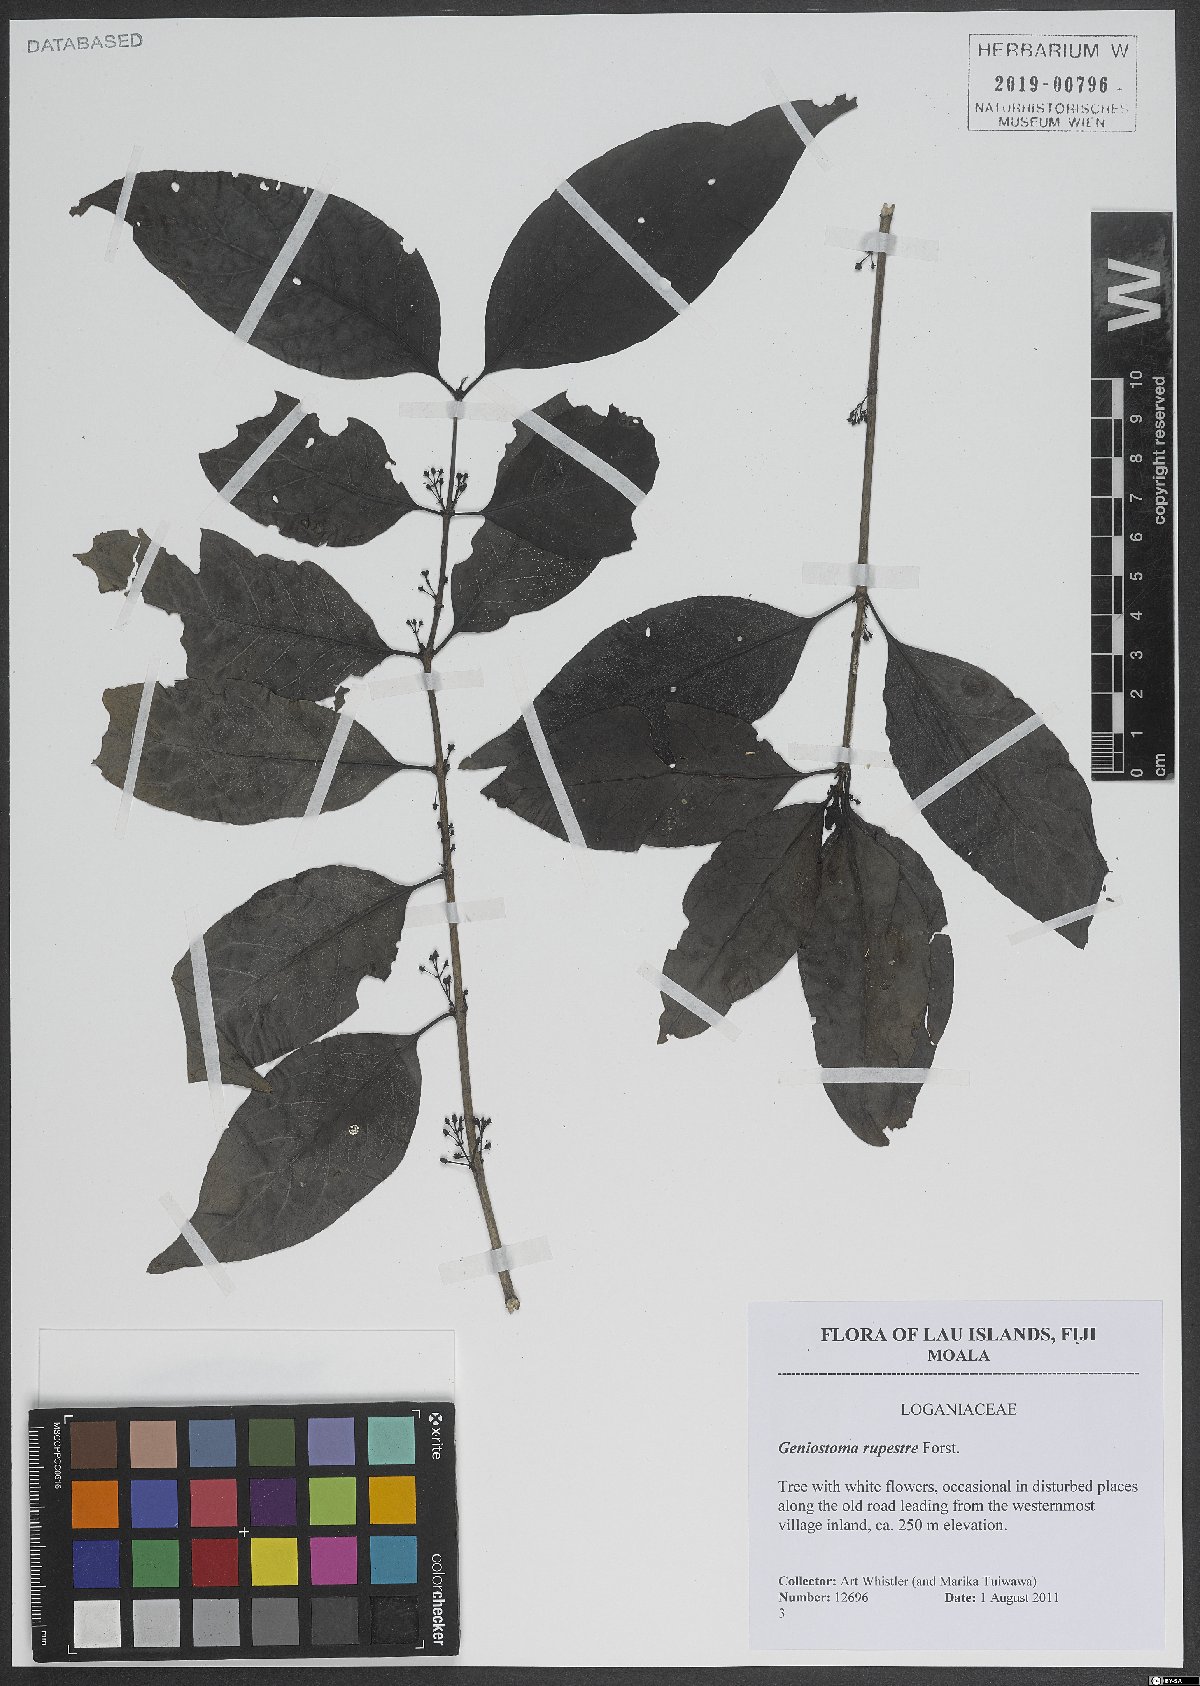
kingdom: Plantae
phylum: Tracheophyta
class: Magnoliopsida
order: Gentianales
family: Loganiaceae
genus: Geniostoma
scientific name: Geniostoma rupestre
